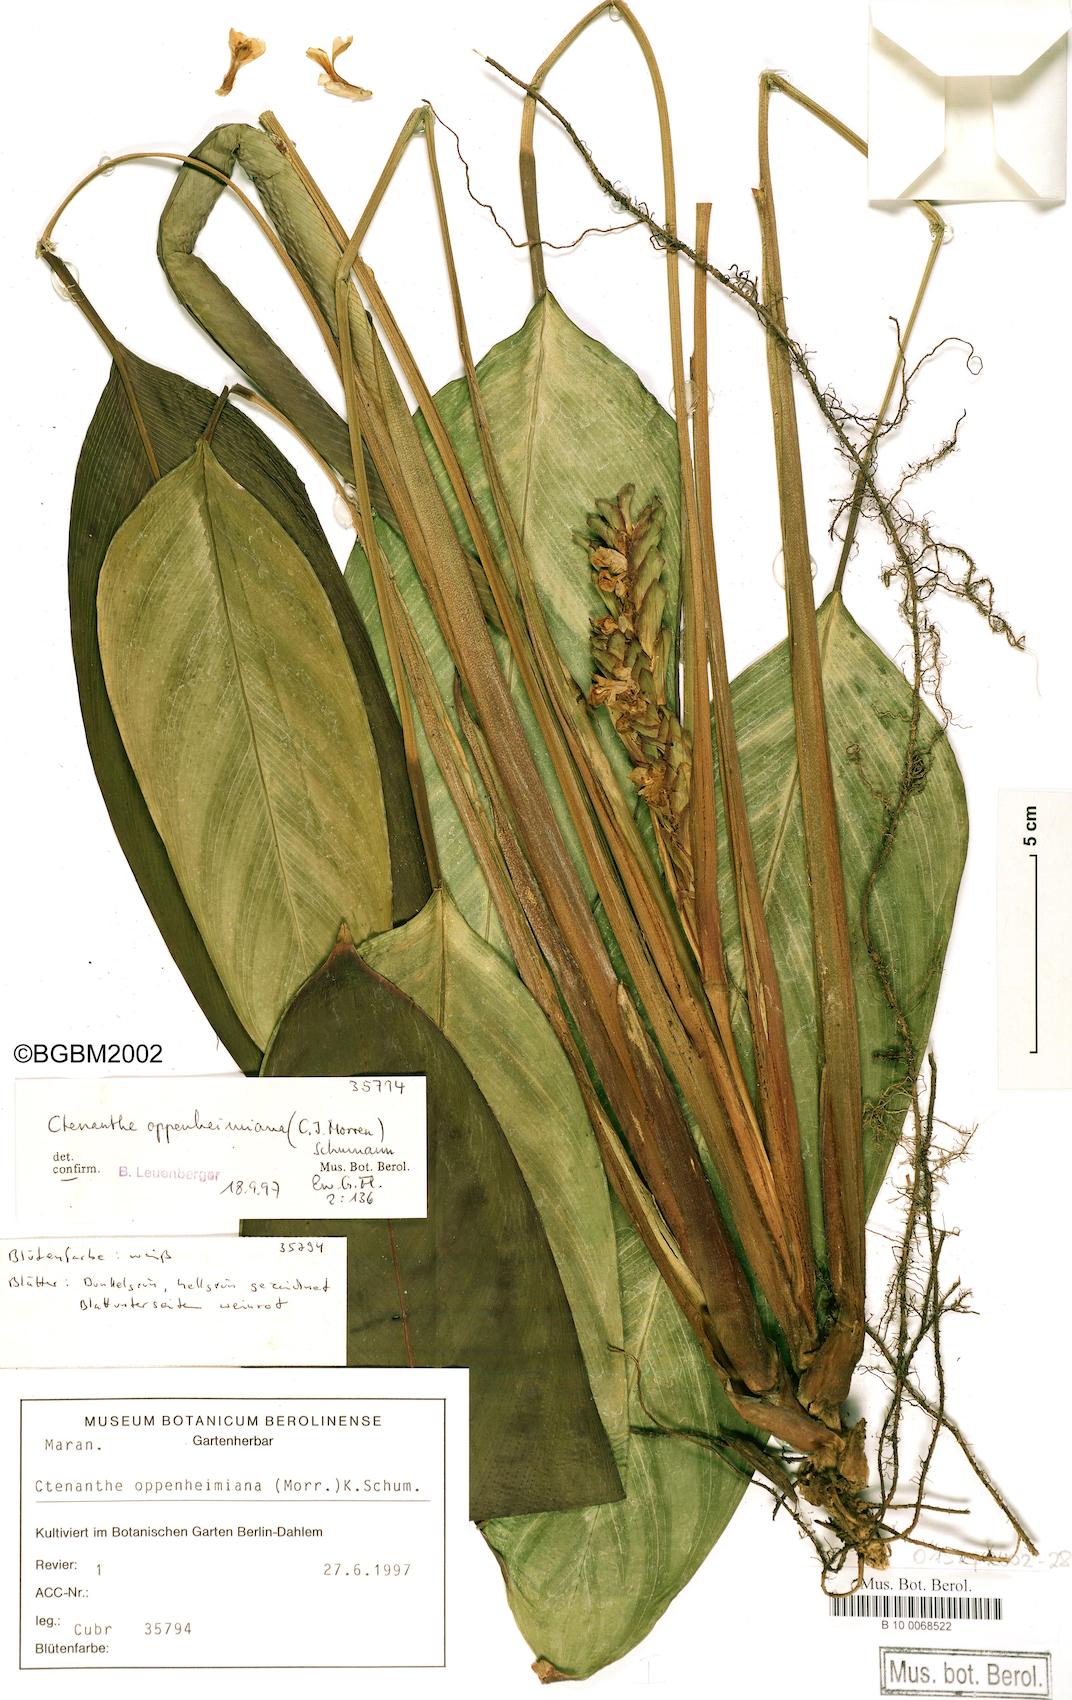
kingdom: Plantae
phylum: Tracheophyta
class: Liliopsida
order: Zingiberales
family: Marantaceae
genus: Ctenanthe
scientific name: Ctenanthe oppenheimiana
